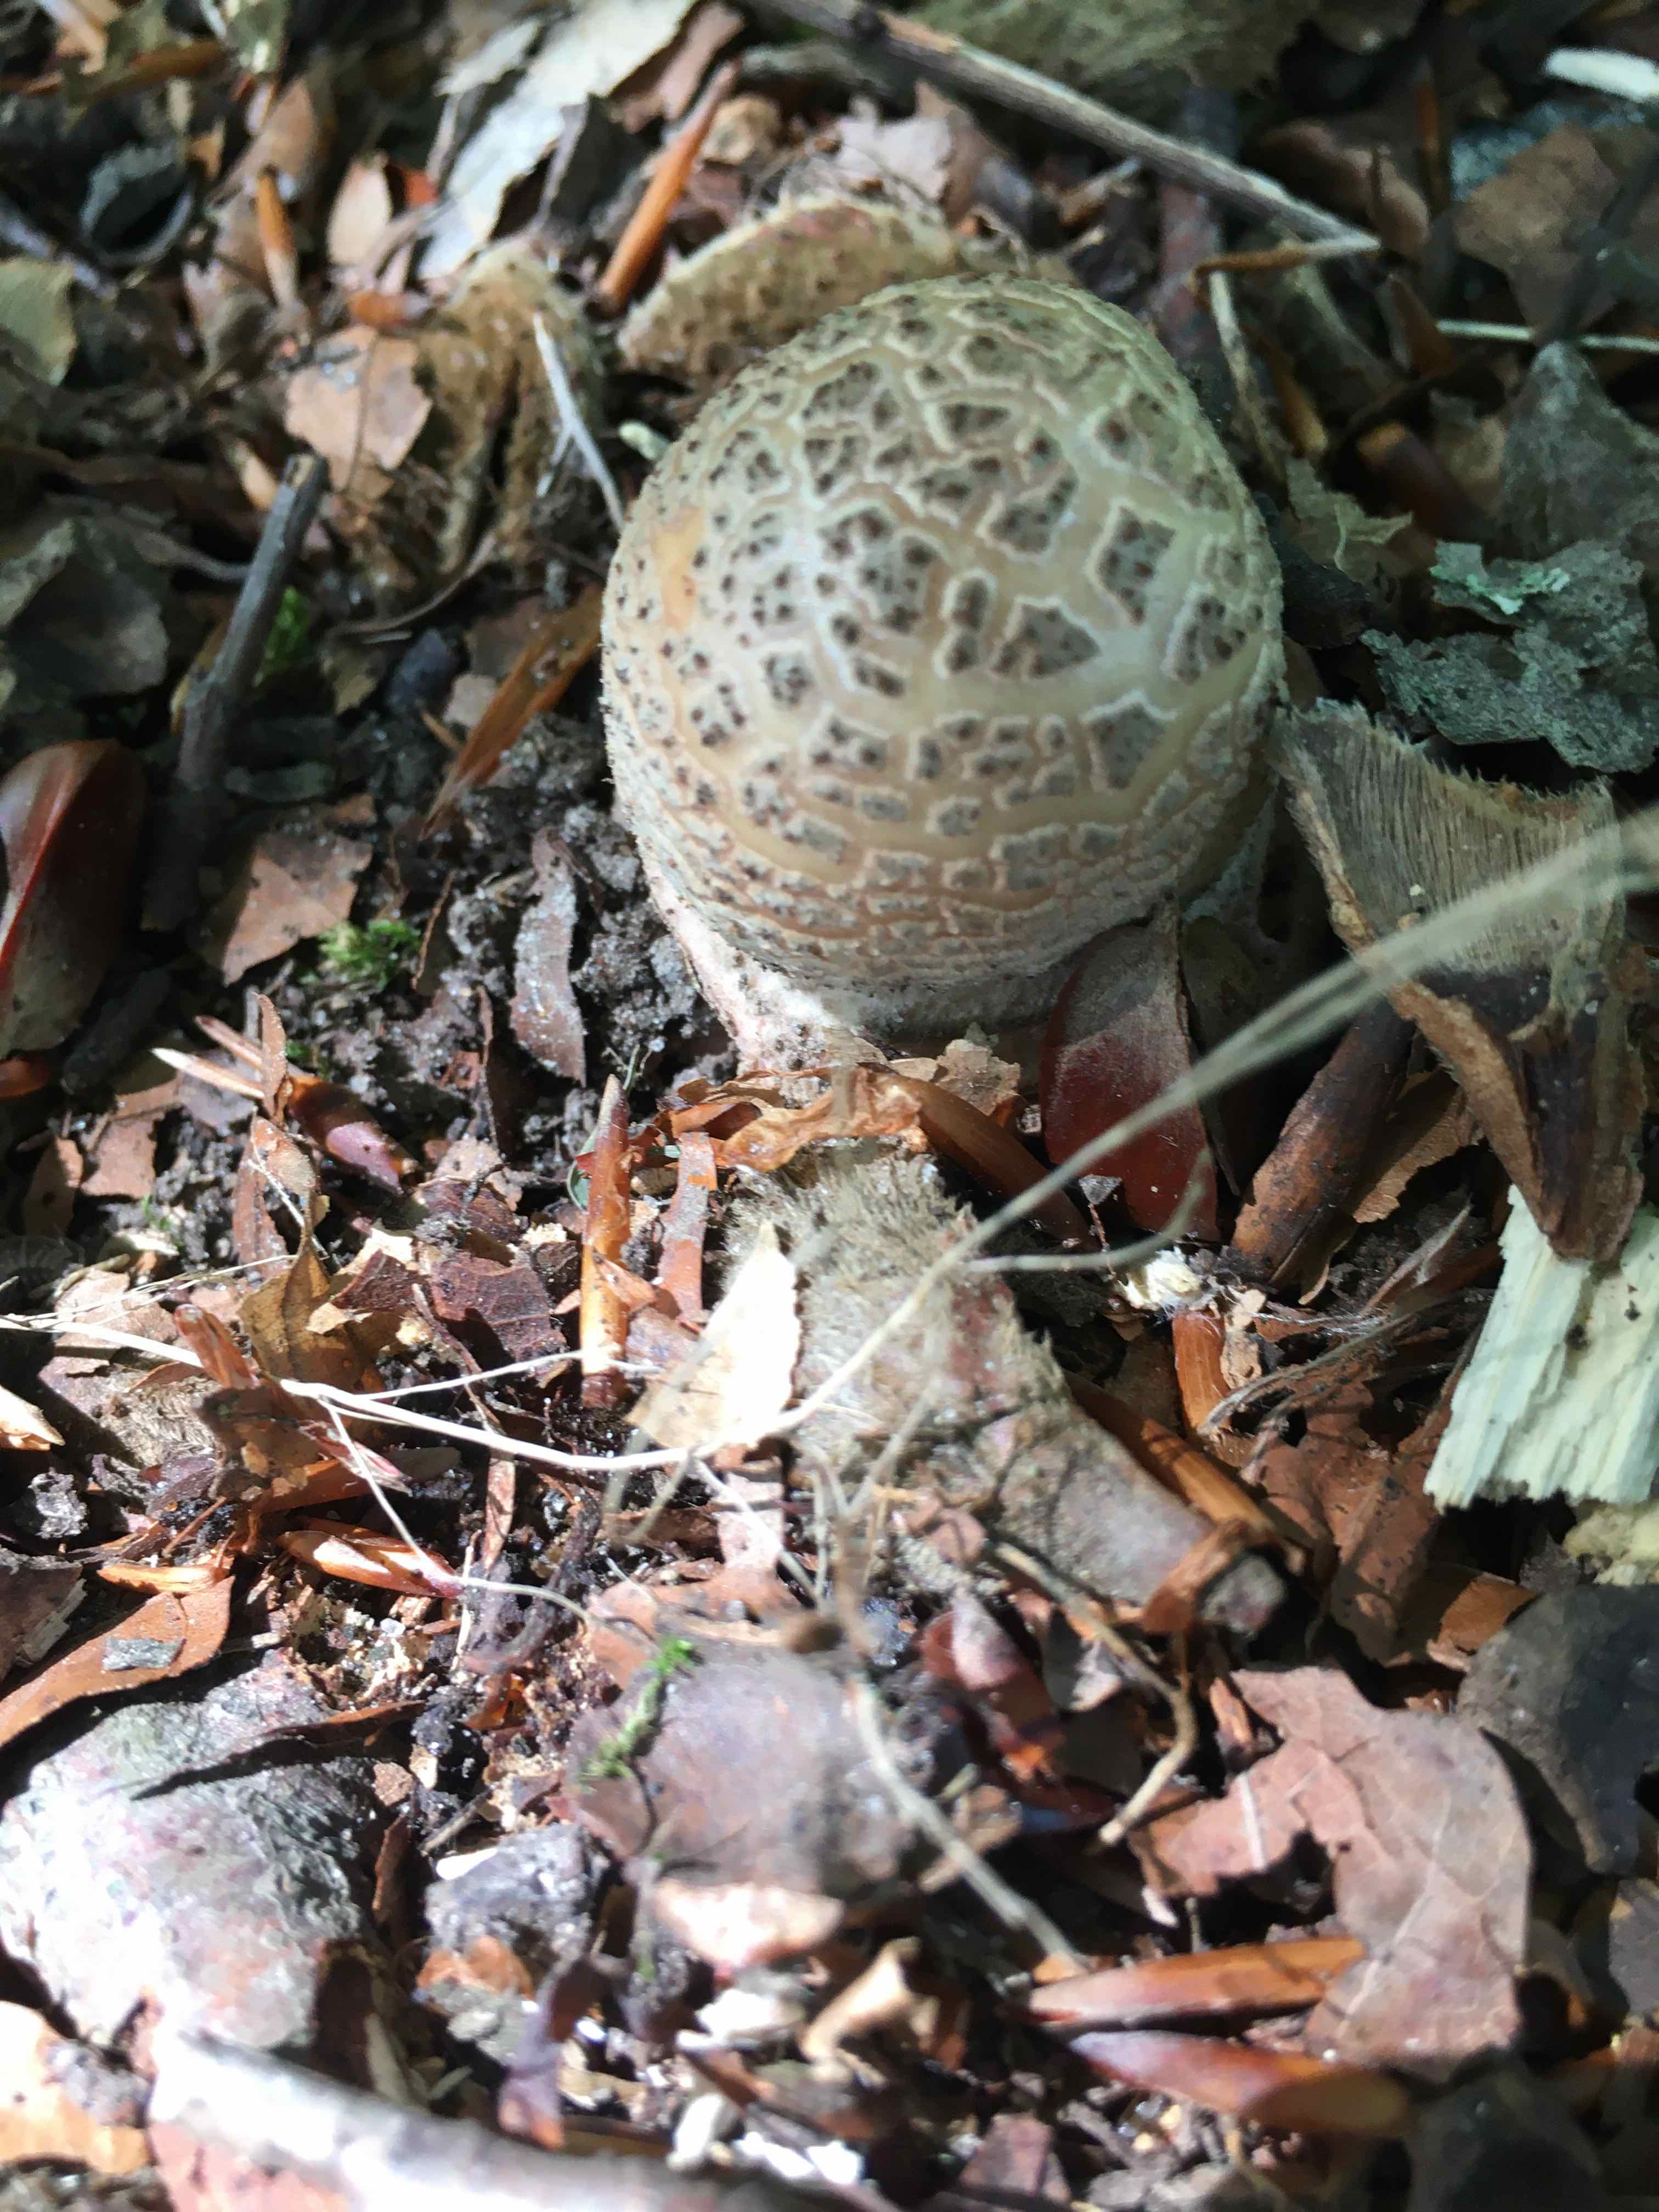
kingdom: Fungi
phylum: Basidiomycota
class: Agaricomycetes
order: Agaricales
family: Amanitaceae
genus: Amanita
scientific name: Amanita rubescens
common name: rødmende fluesvamp
